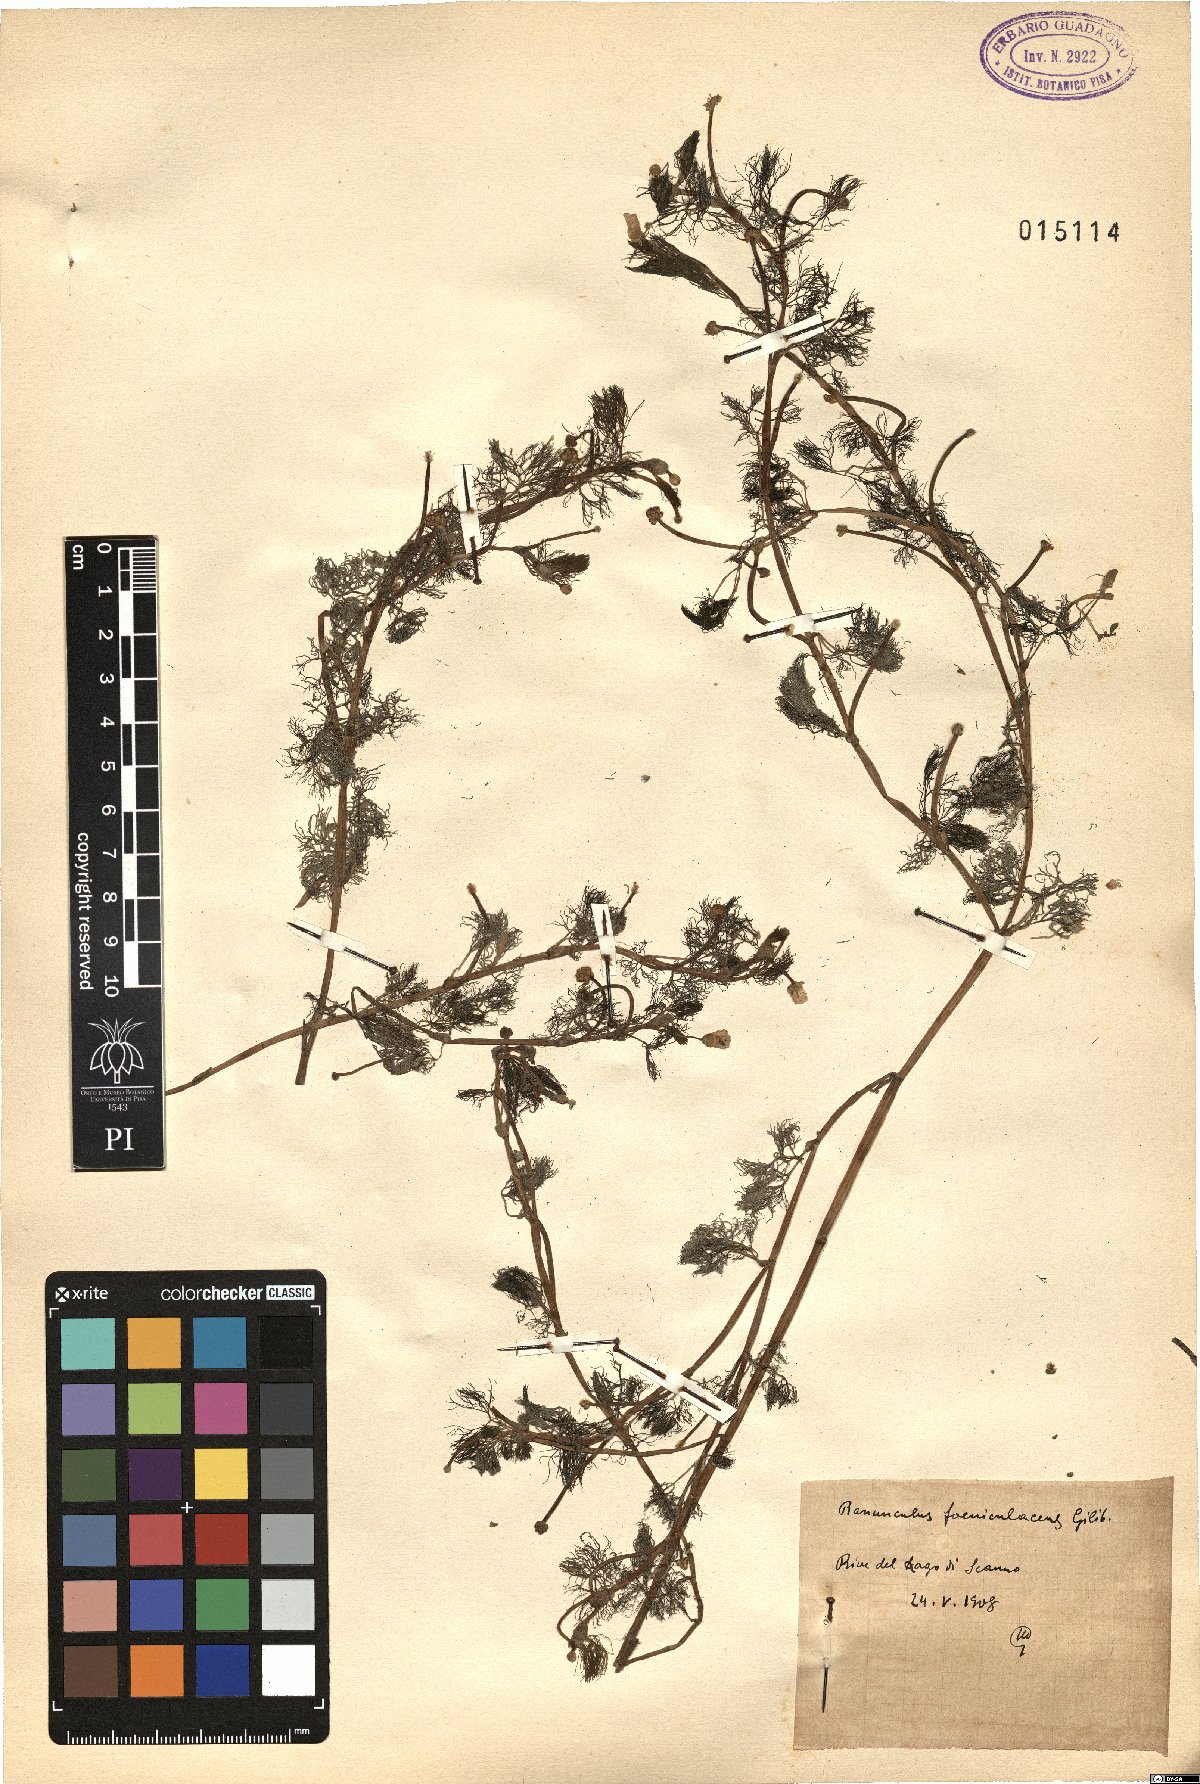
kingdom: Plantae
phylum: Tracheophyta
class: Magnoliopsida
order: Ranunculales
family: Ranunculaceae
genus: Ranunculus
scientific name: Ranunculus circinatus
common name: Fan-leaved water-crowfoot
